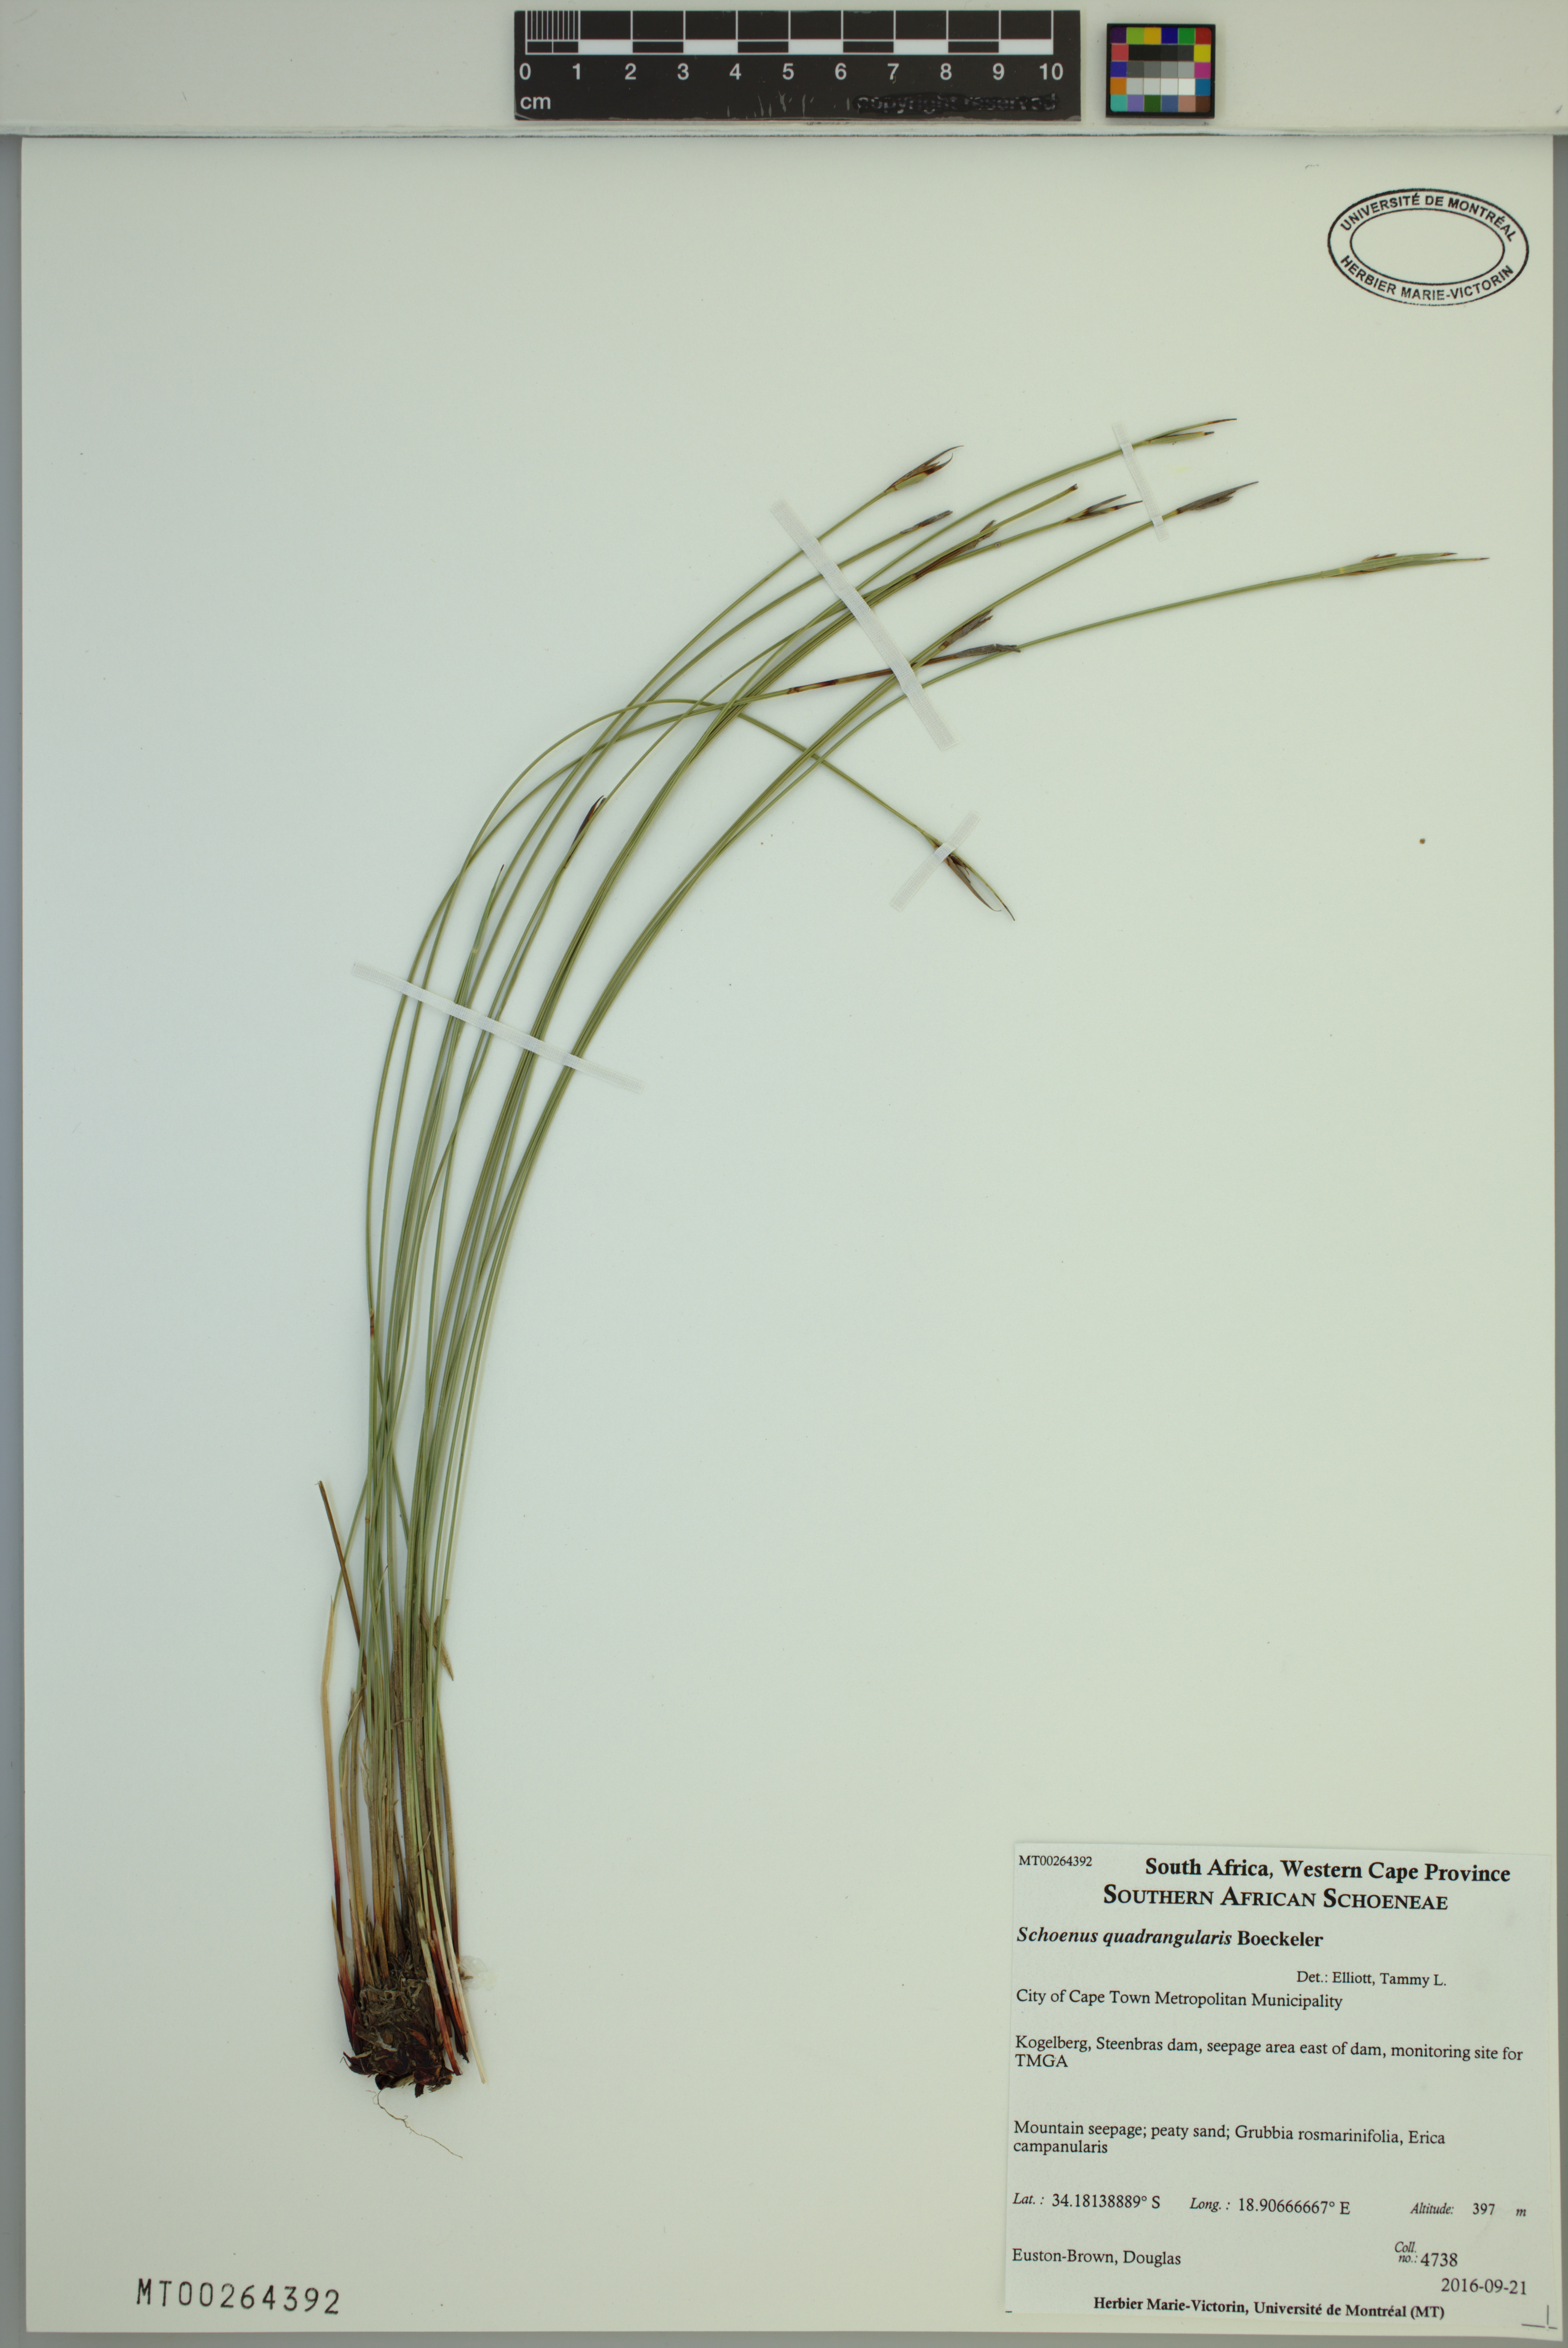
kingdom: Plantae
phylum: Tracheophyta
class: Liliopsida
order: Poales
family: Cyperaceae
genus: Schoenus
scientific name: Schoenus quadrangularis
